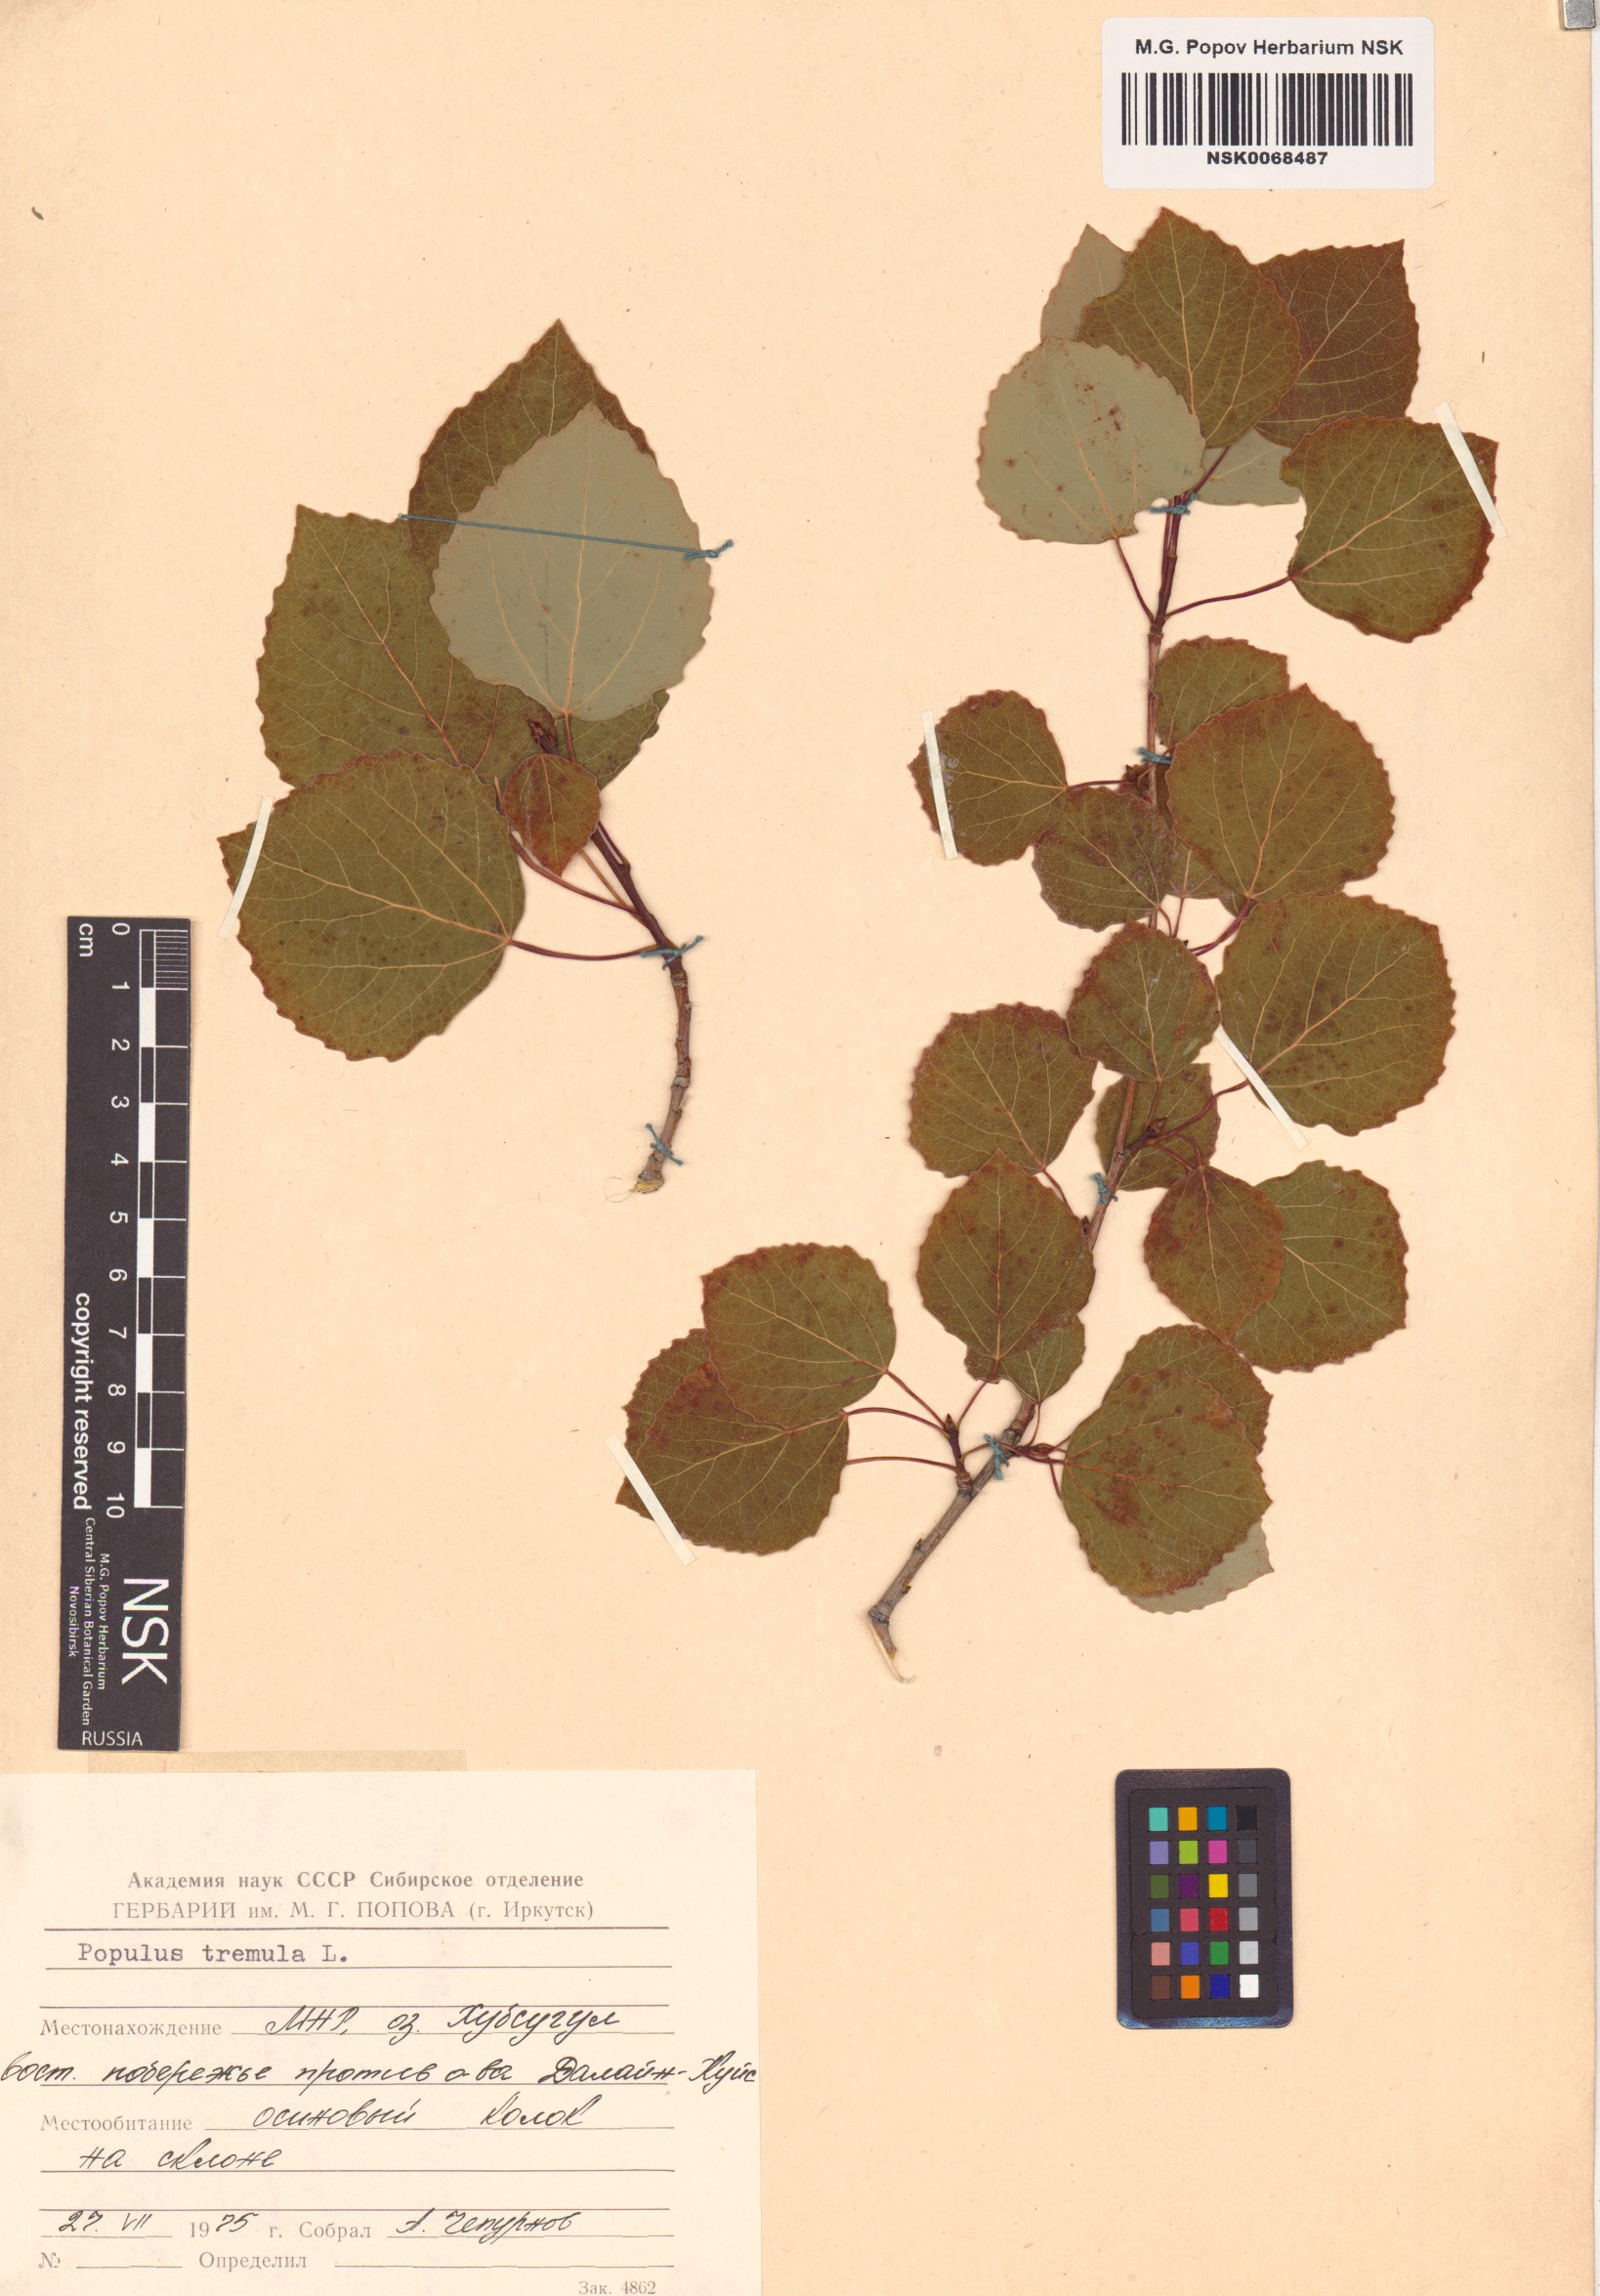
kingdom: Plantae
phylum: Tracheophyta
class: Magnoliopsida
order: Malpighiales
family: Salicaceae
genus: Populus
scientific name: Populus tremula
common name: European aspen
